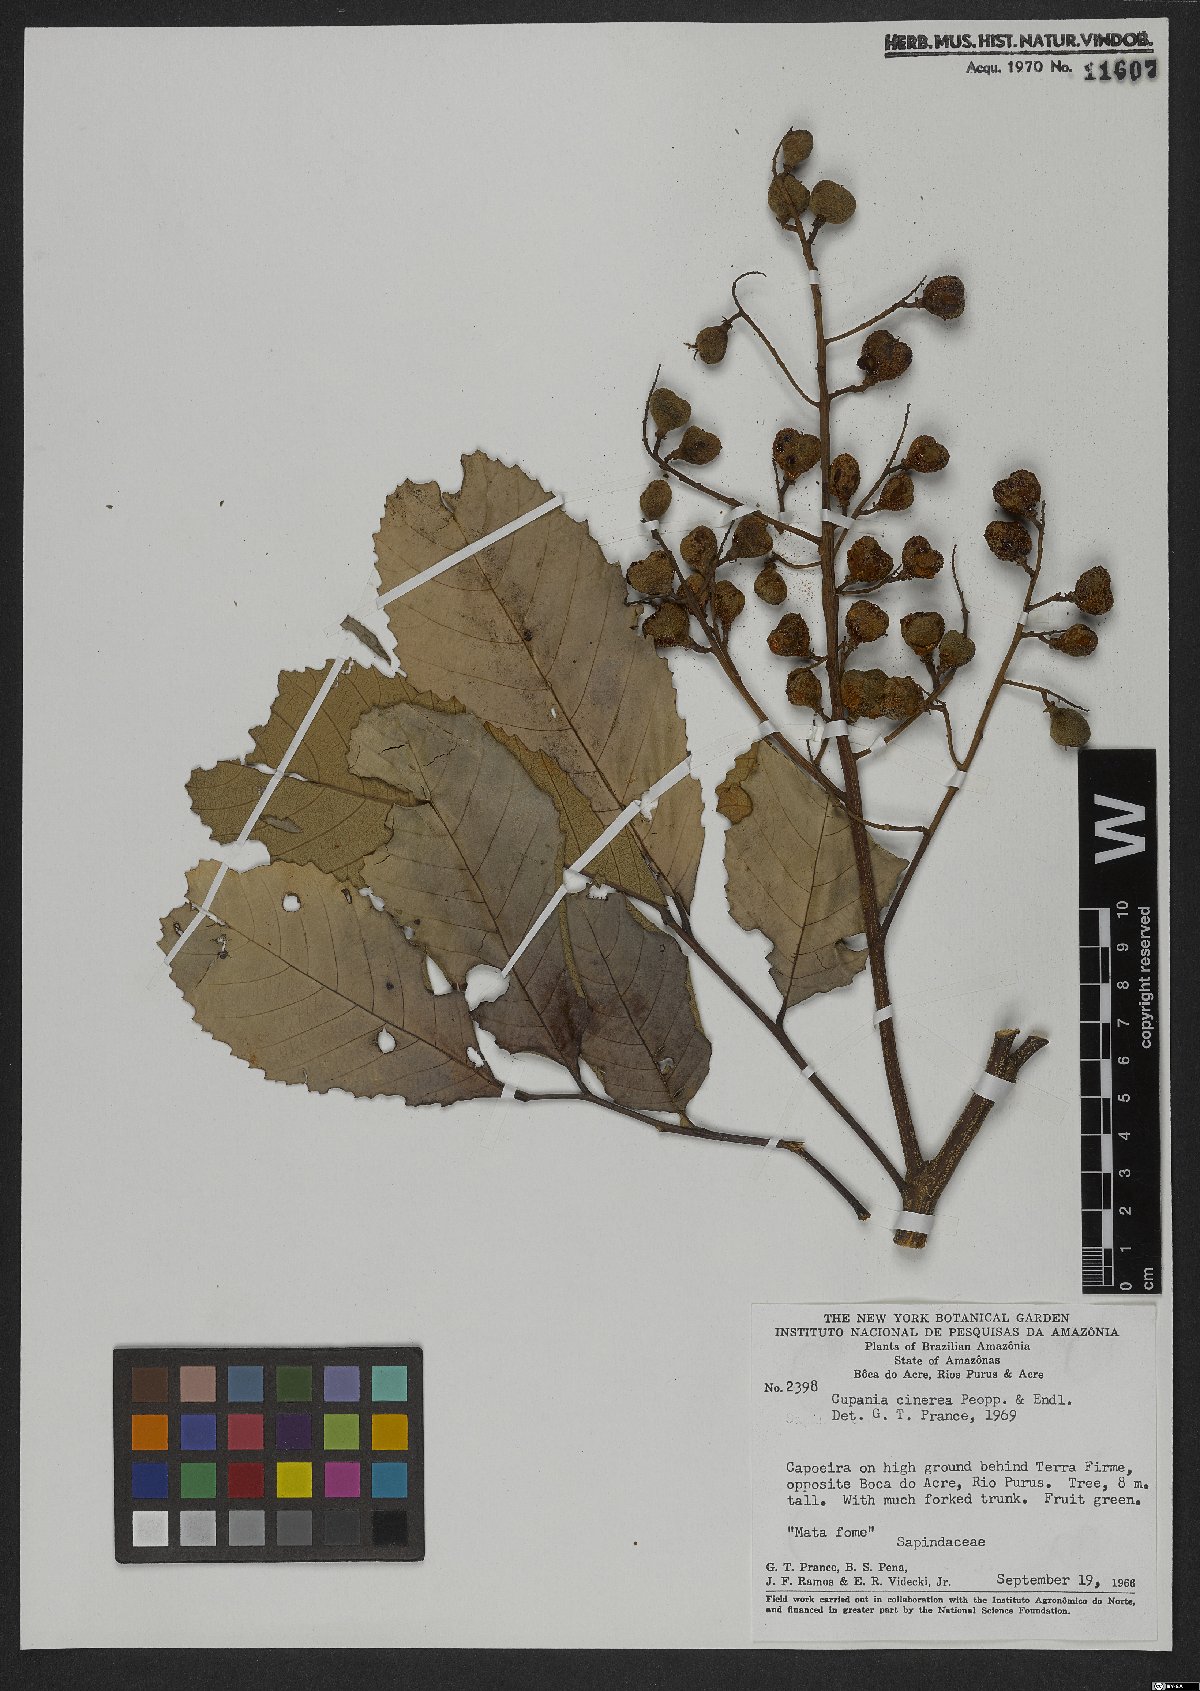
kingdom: Plantae
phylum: Tracheophyta
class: Magnoliopsida
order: Sapindales
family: Sapindaceae
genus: Cupania
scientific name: Cupania cinerea
